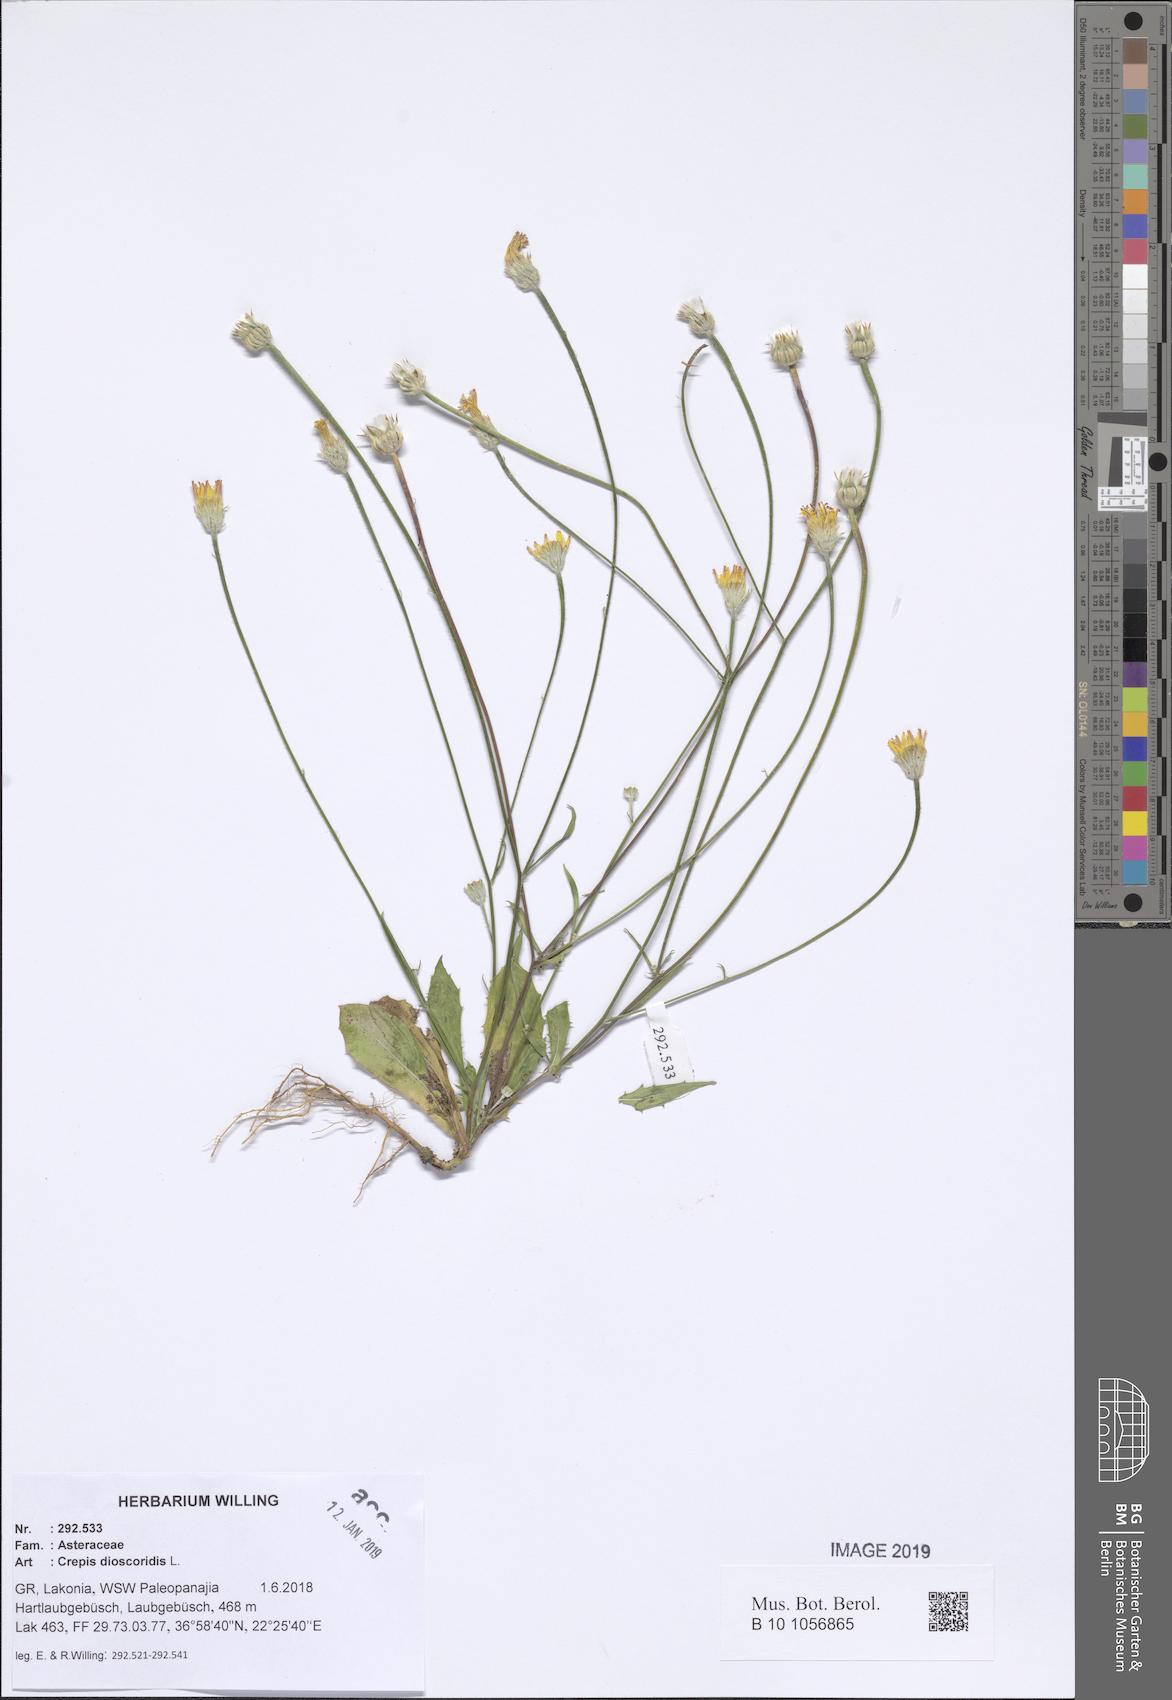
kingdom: Plantae
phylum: Tracheophyta
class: Magnoliopsida
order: Asterales
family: Asteraceae
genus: Crepis
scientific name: Crepis dioscoridis
